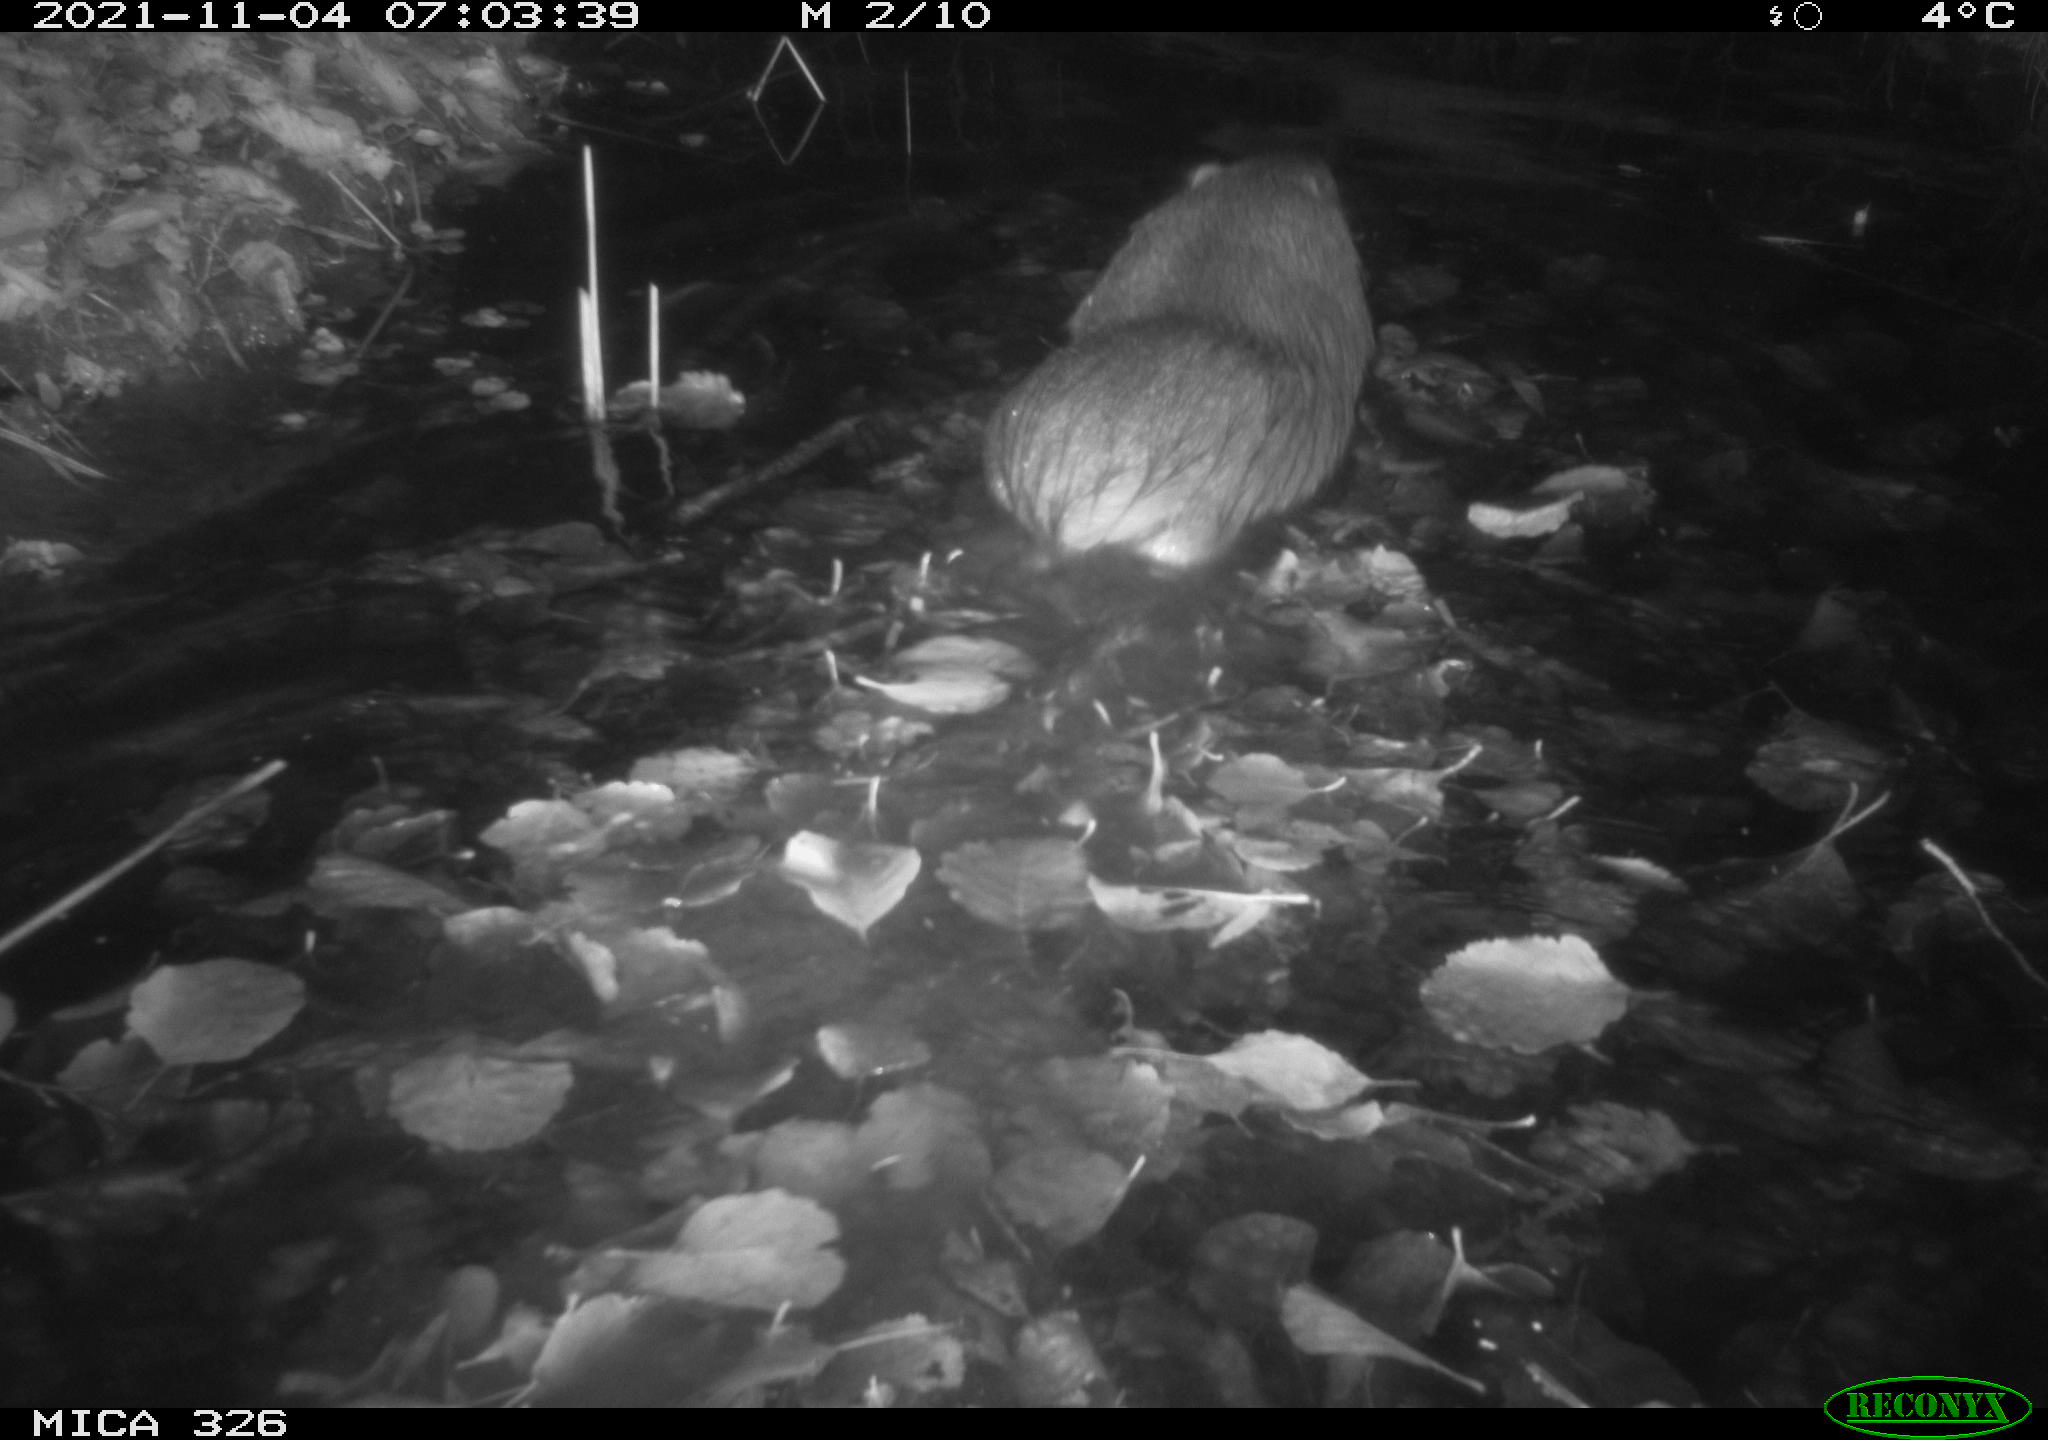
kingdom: Animalia
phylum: Chordata
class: Mammalia
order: Rodentia
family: Myocastoridae
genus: Myocastor
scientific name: Myocastor coypus
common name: Coypu
